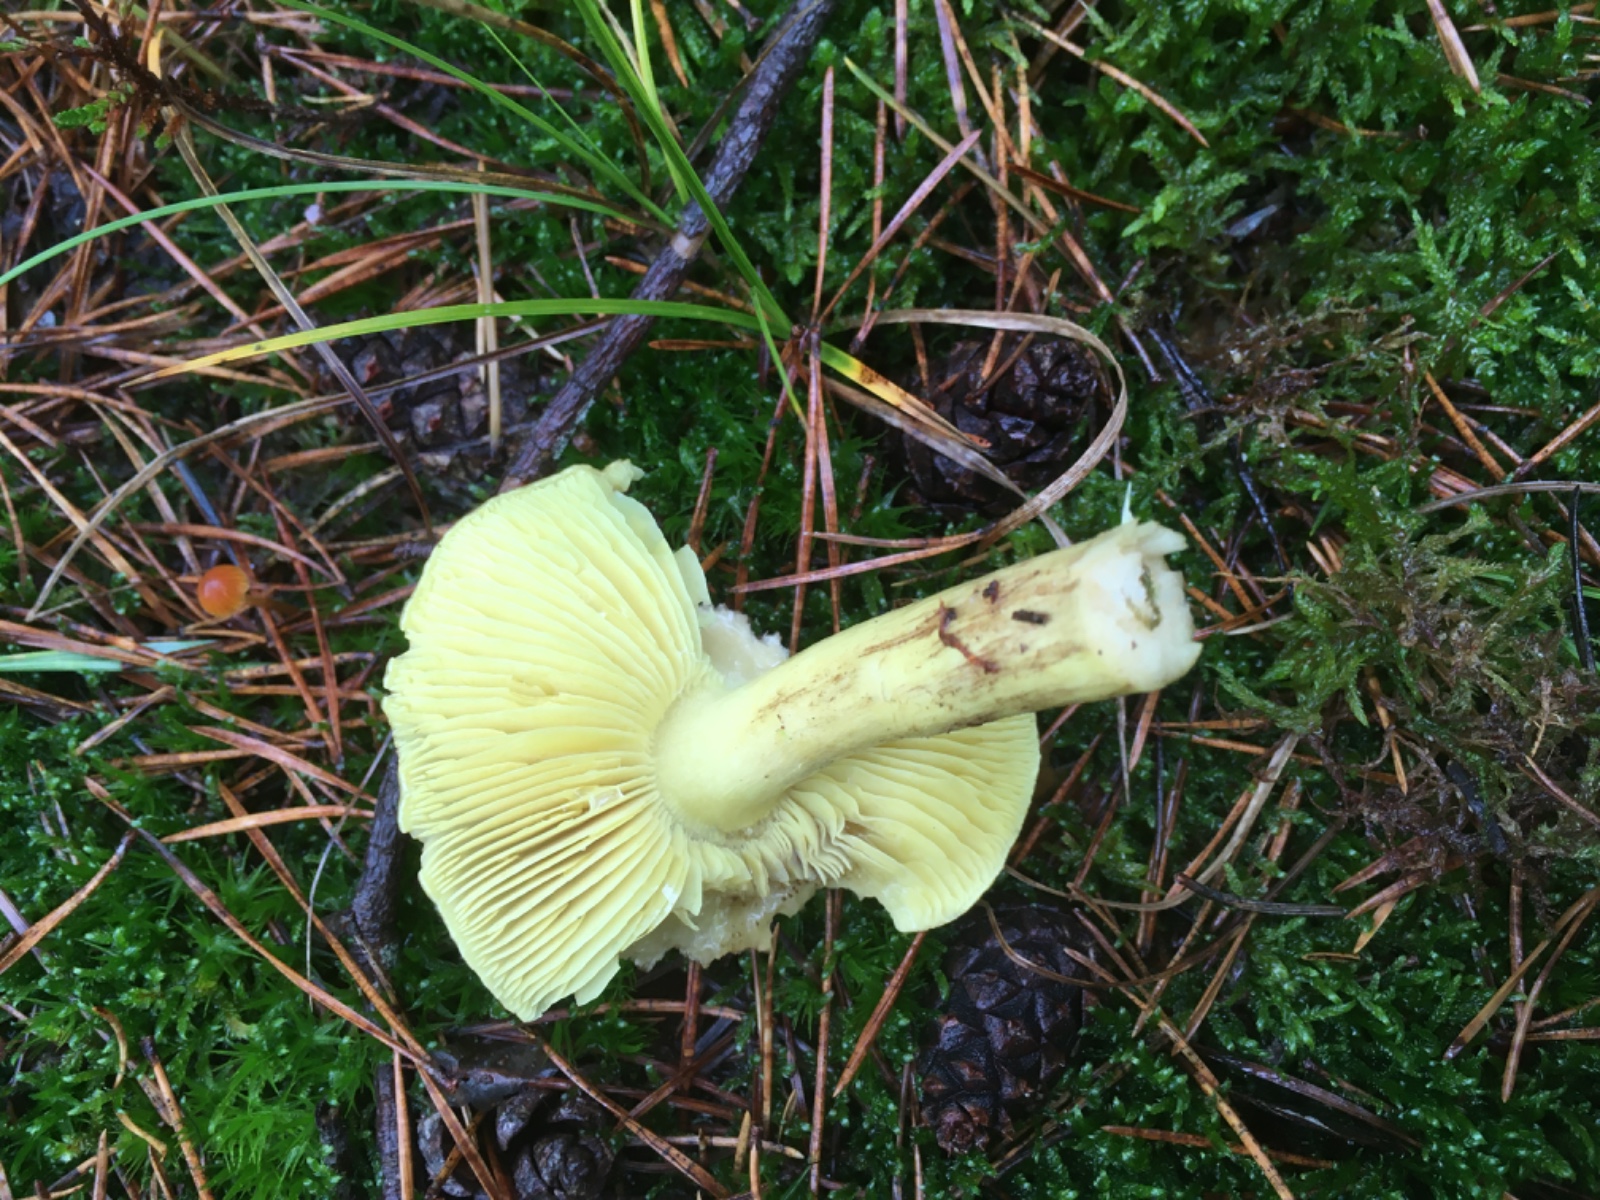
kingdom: Fungi
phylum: Basidiomycota
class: Agaricomycetes
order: Agaricales
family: Tricholomataceae
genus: Tricholoma
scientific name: Tricholoma equestre
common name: ægte ridderhat
